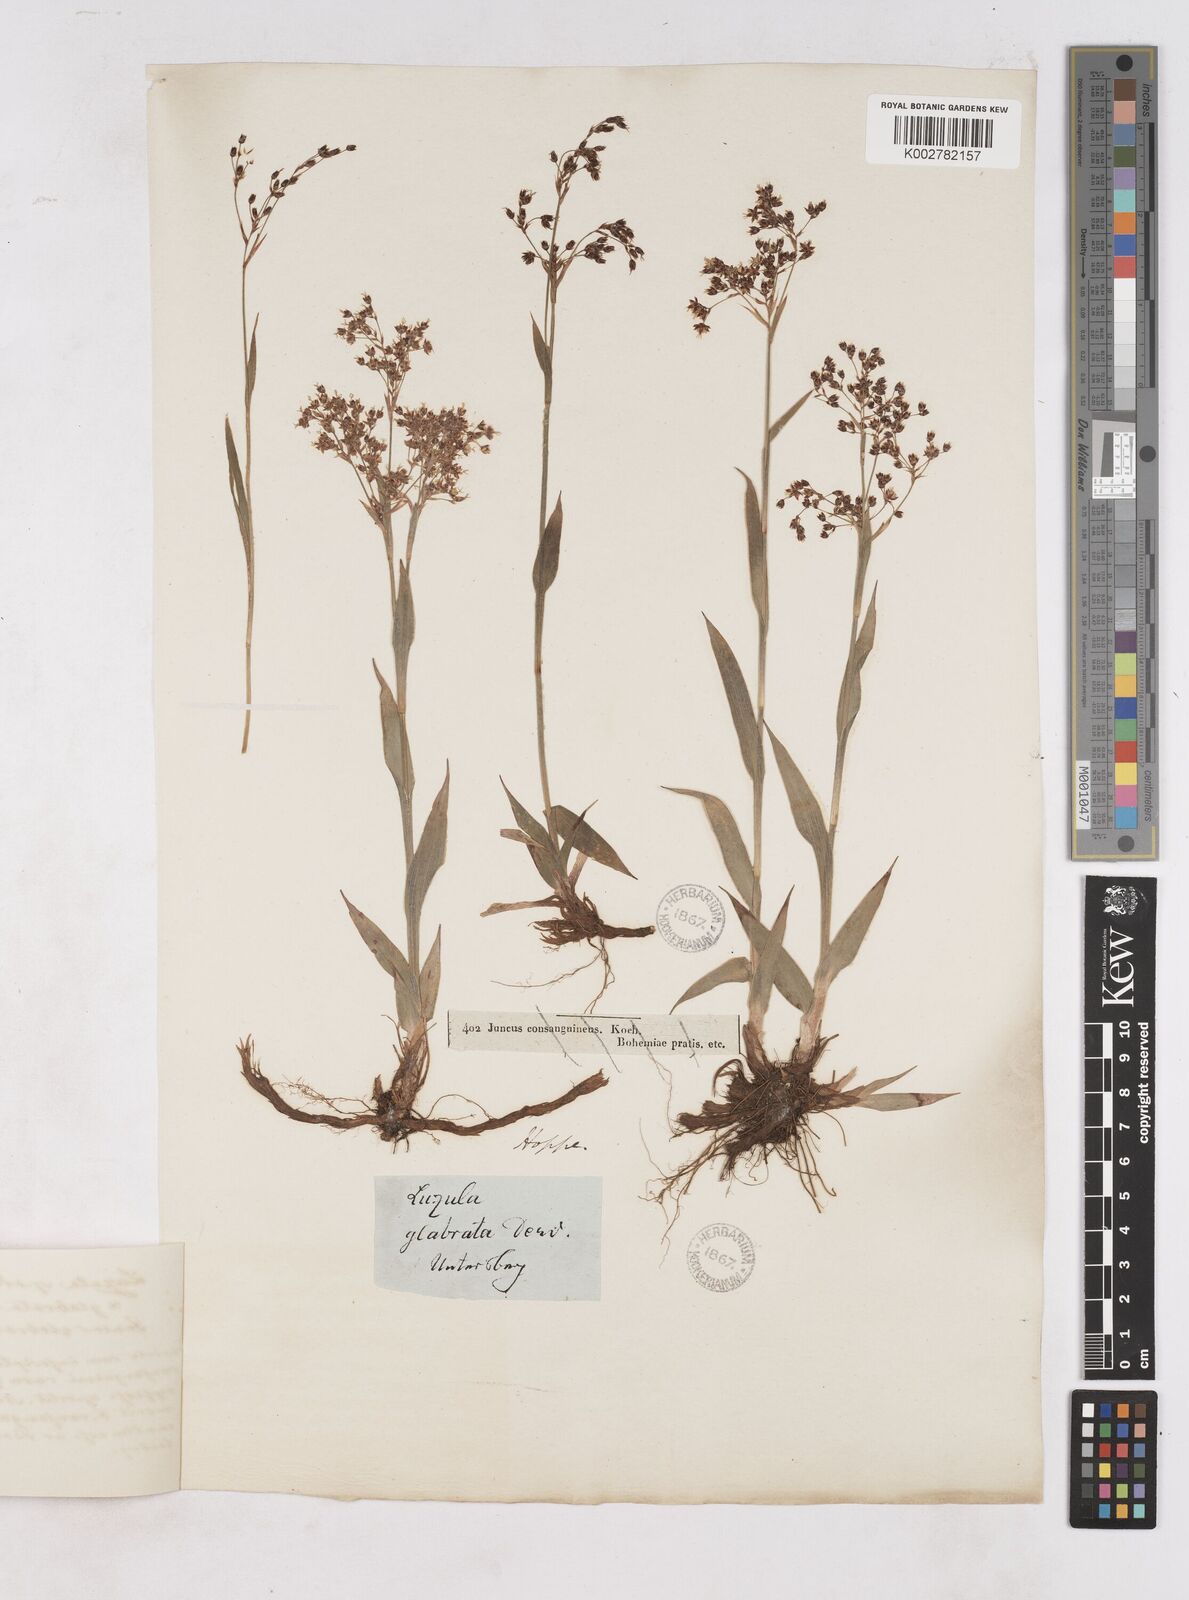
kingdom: Plantae
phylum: Tracheophyta
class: Liliopsida
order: Poales
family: Juncaceae
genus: Luzula
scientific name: Luzula glabrata
